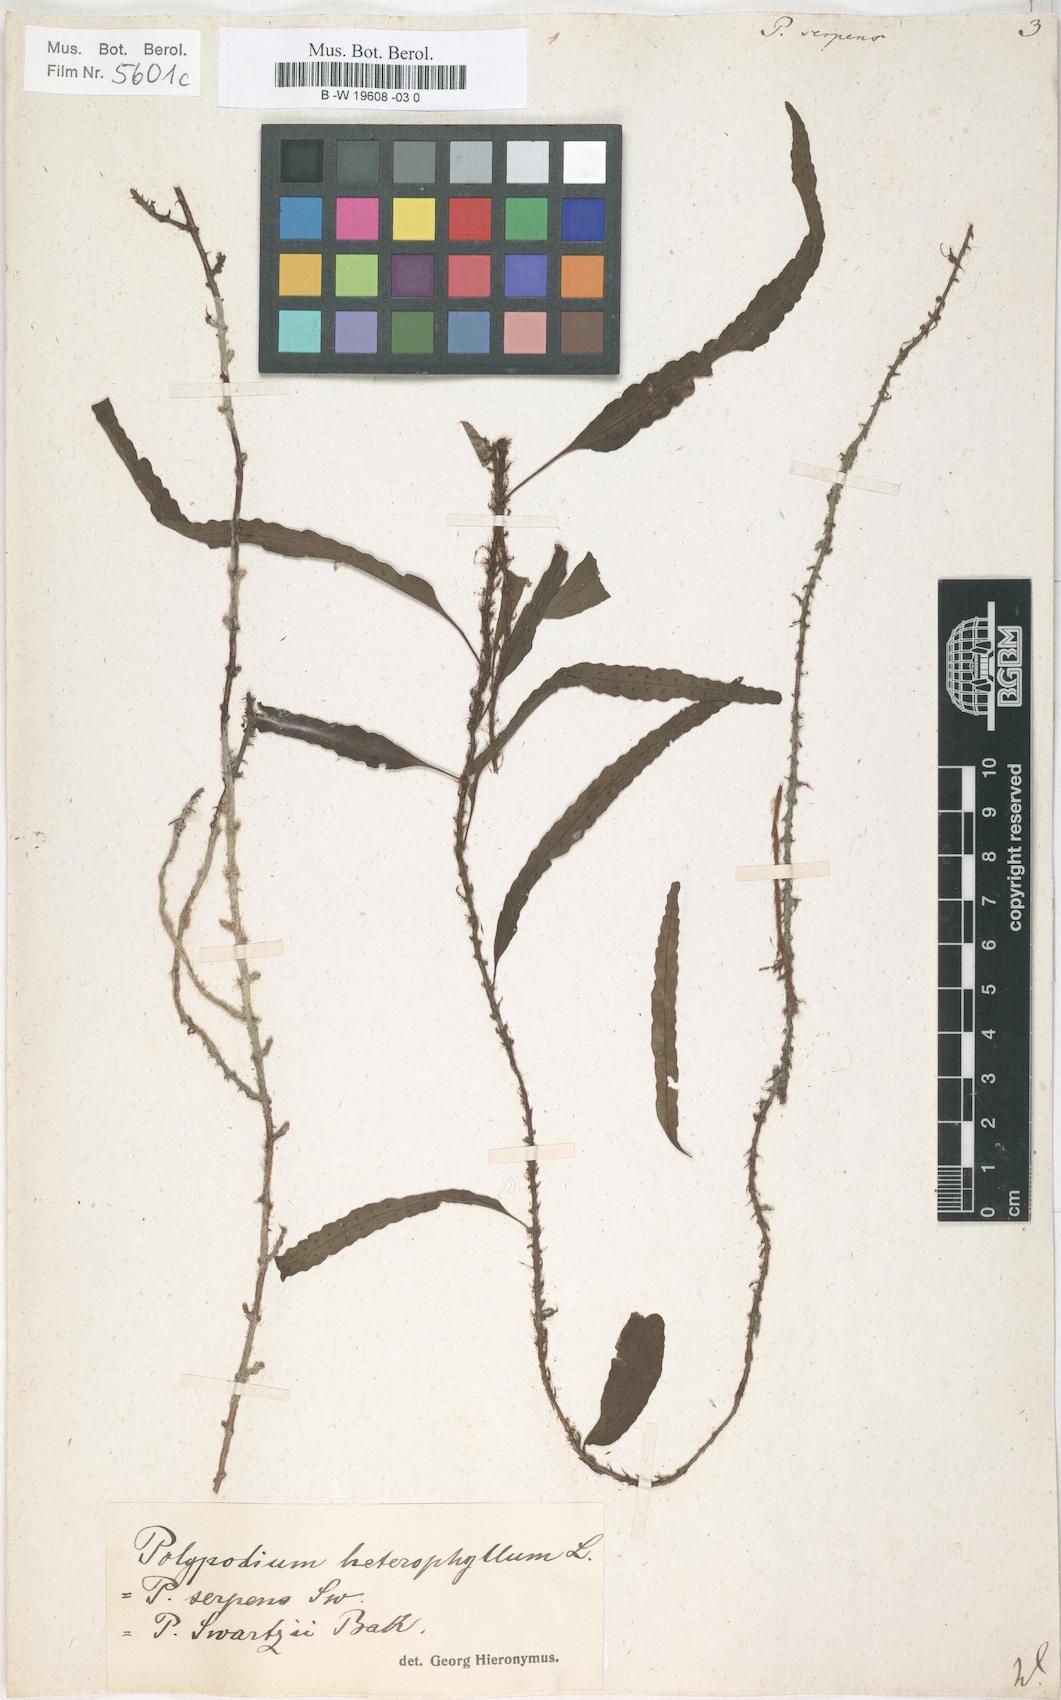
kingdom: Plantae
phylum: Tracheophyta
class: Polypodiopsida
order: Polypodiales
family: Polypodiaceae
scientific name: Polypodiaceae
